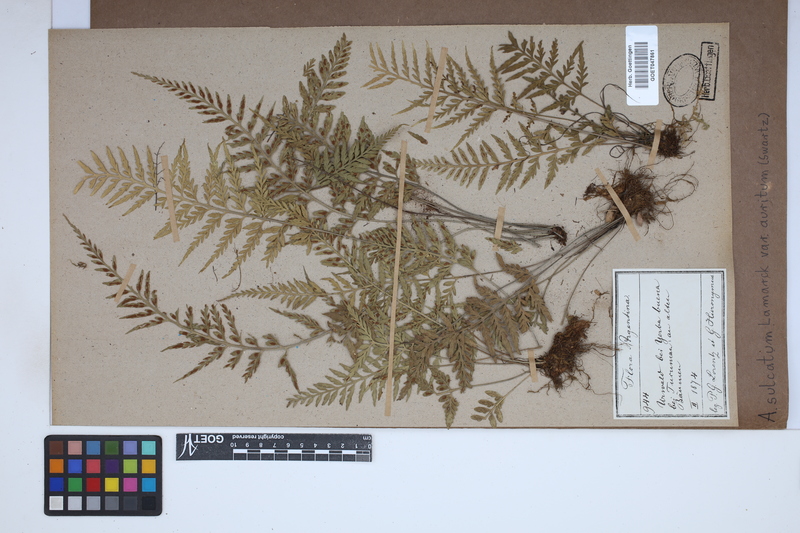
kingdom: Plantae
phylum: Tracheophyta
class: Polypodiopsida
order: Polypodiales
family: Aspleniaceae
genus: Asplenium
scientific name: Asplenium auritum
